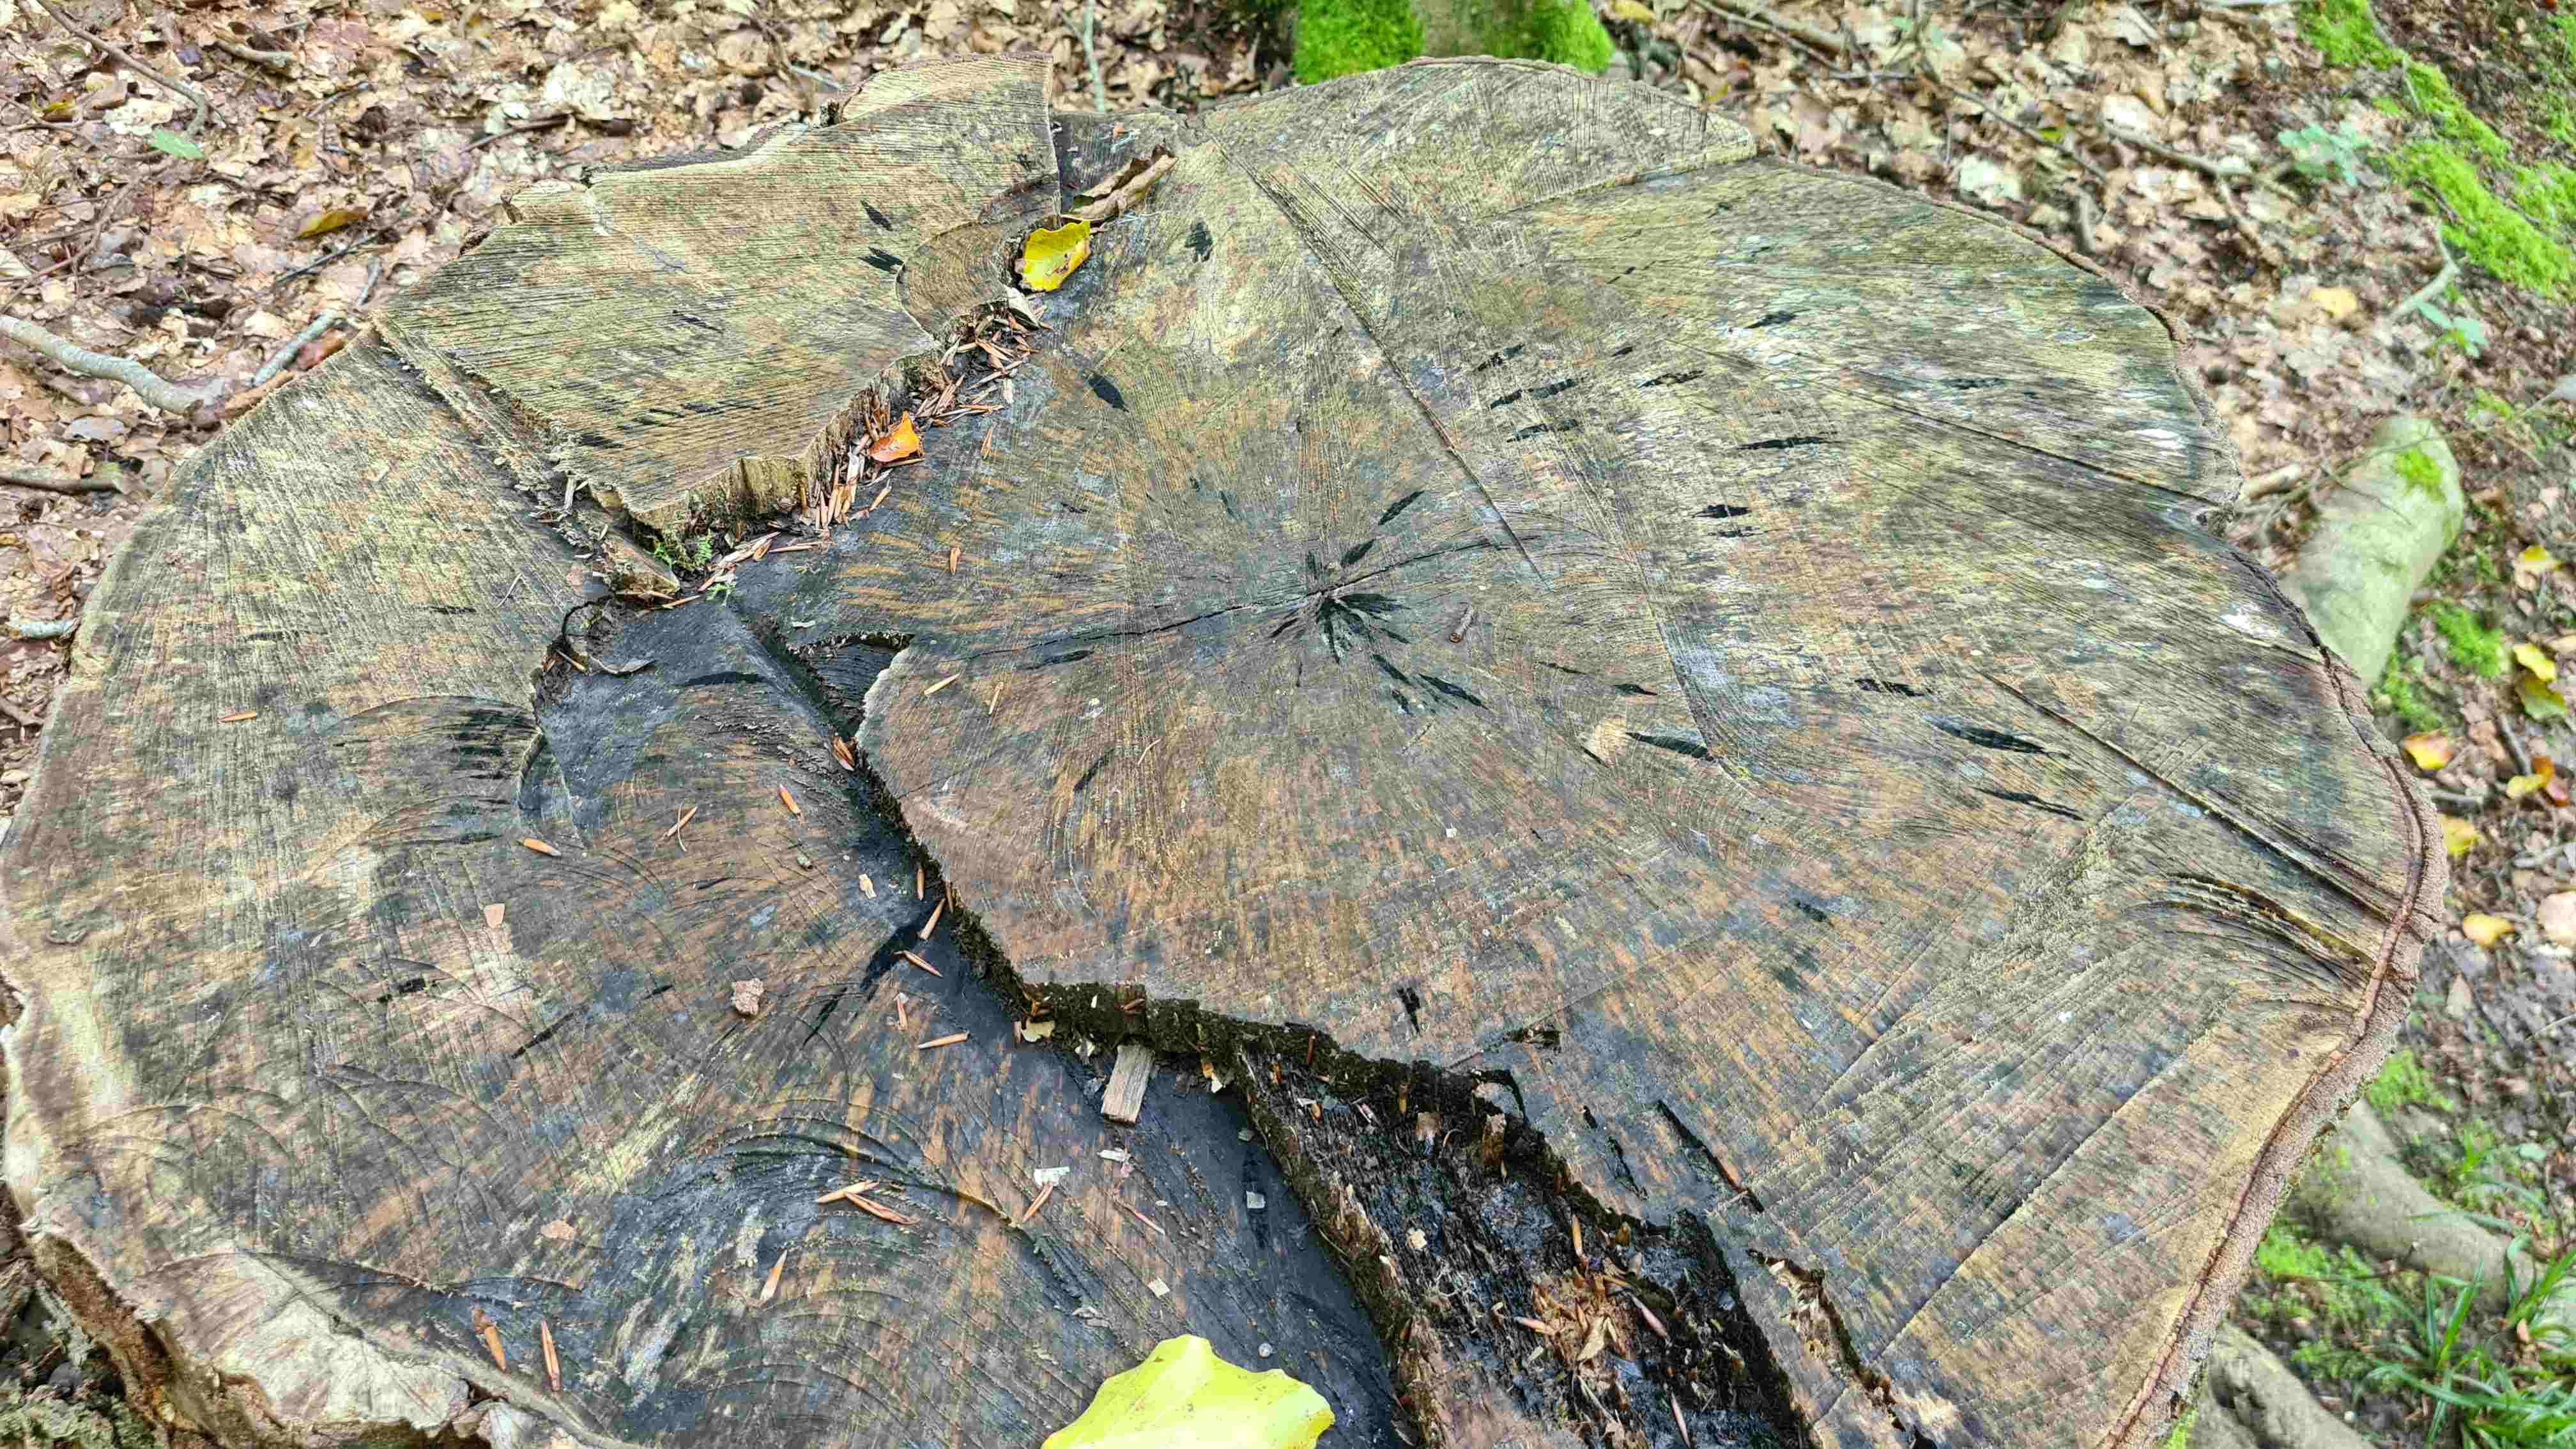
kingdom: Fungi
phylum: Ascomycota
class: Leotiomycetes
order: Helotiales
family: Helotiaceae
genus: Bispora
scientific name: Bispora pallescens
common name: måtte-snitskive
